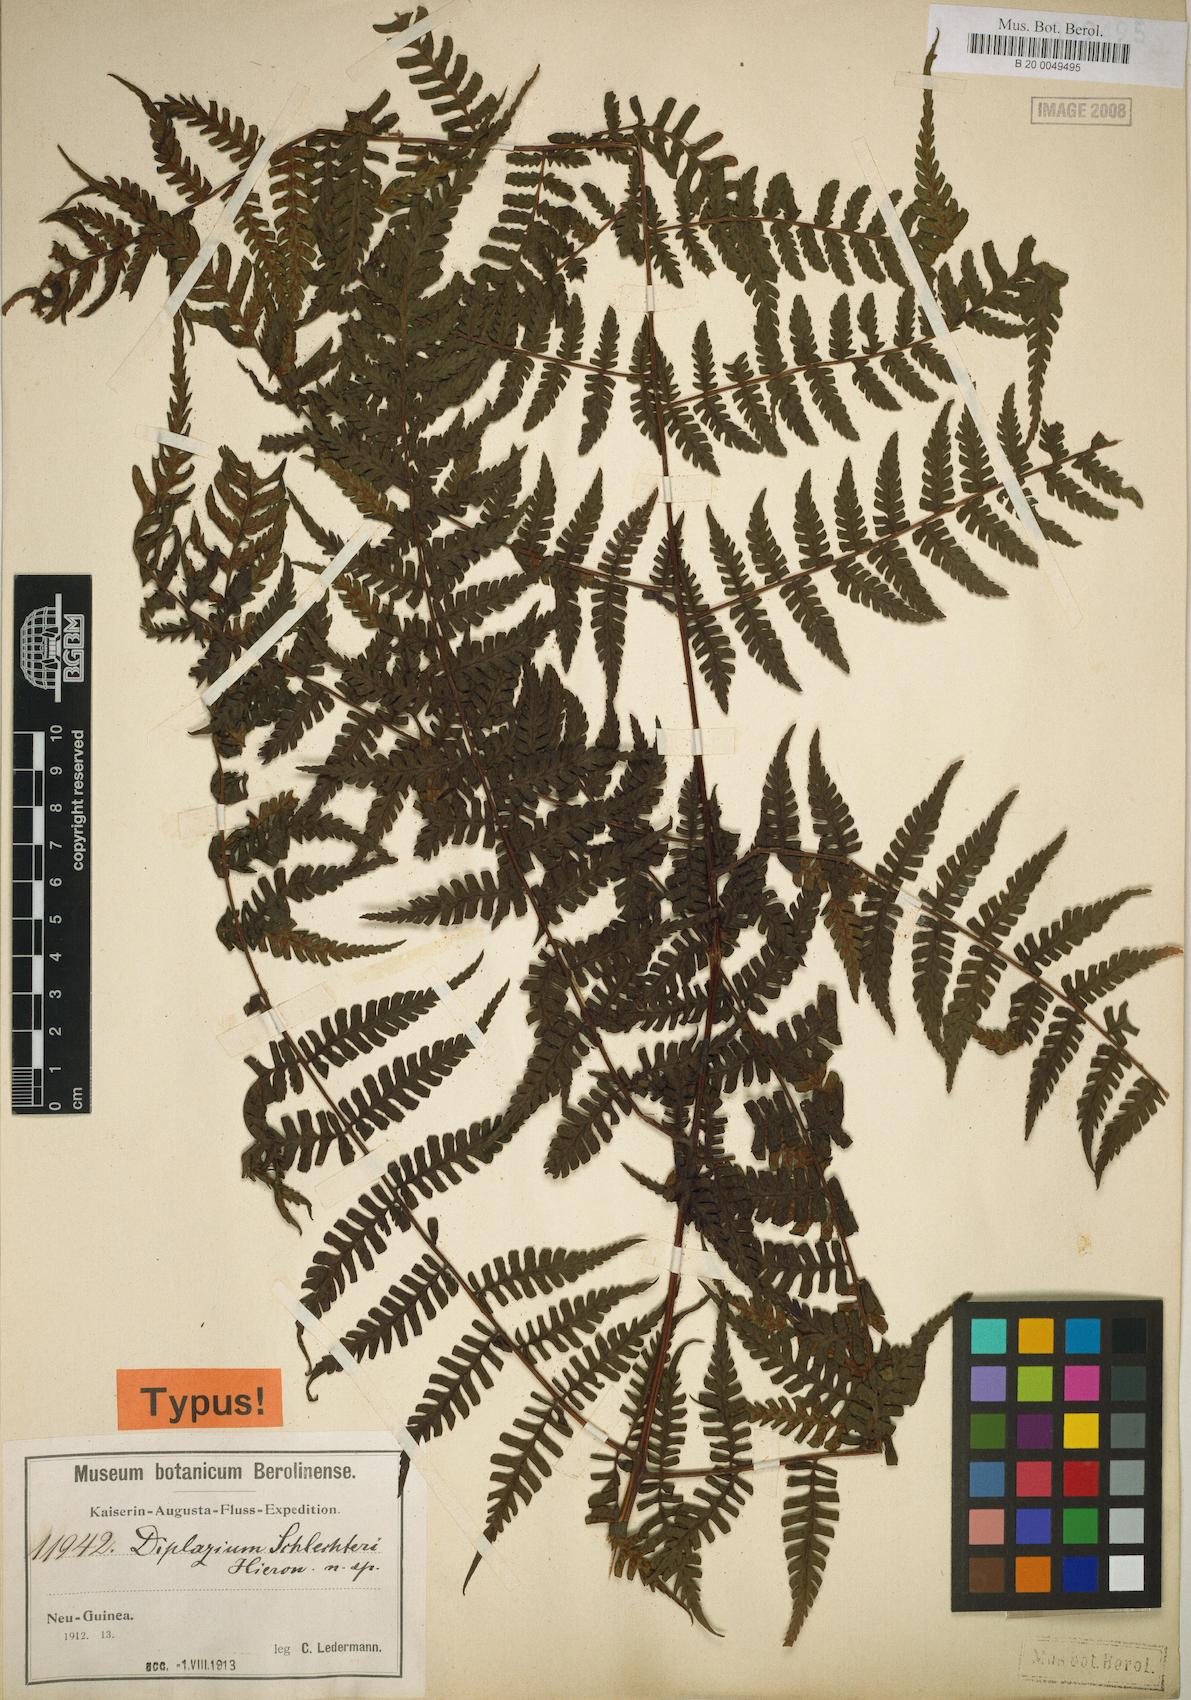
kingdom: Plantae
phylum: Tracheophyta
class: Polypodiopsida
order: Polypodiales
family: Athyriaceae
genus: Diplazium
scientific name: Diplazium schlechteri
